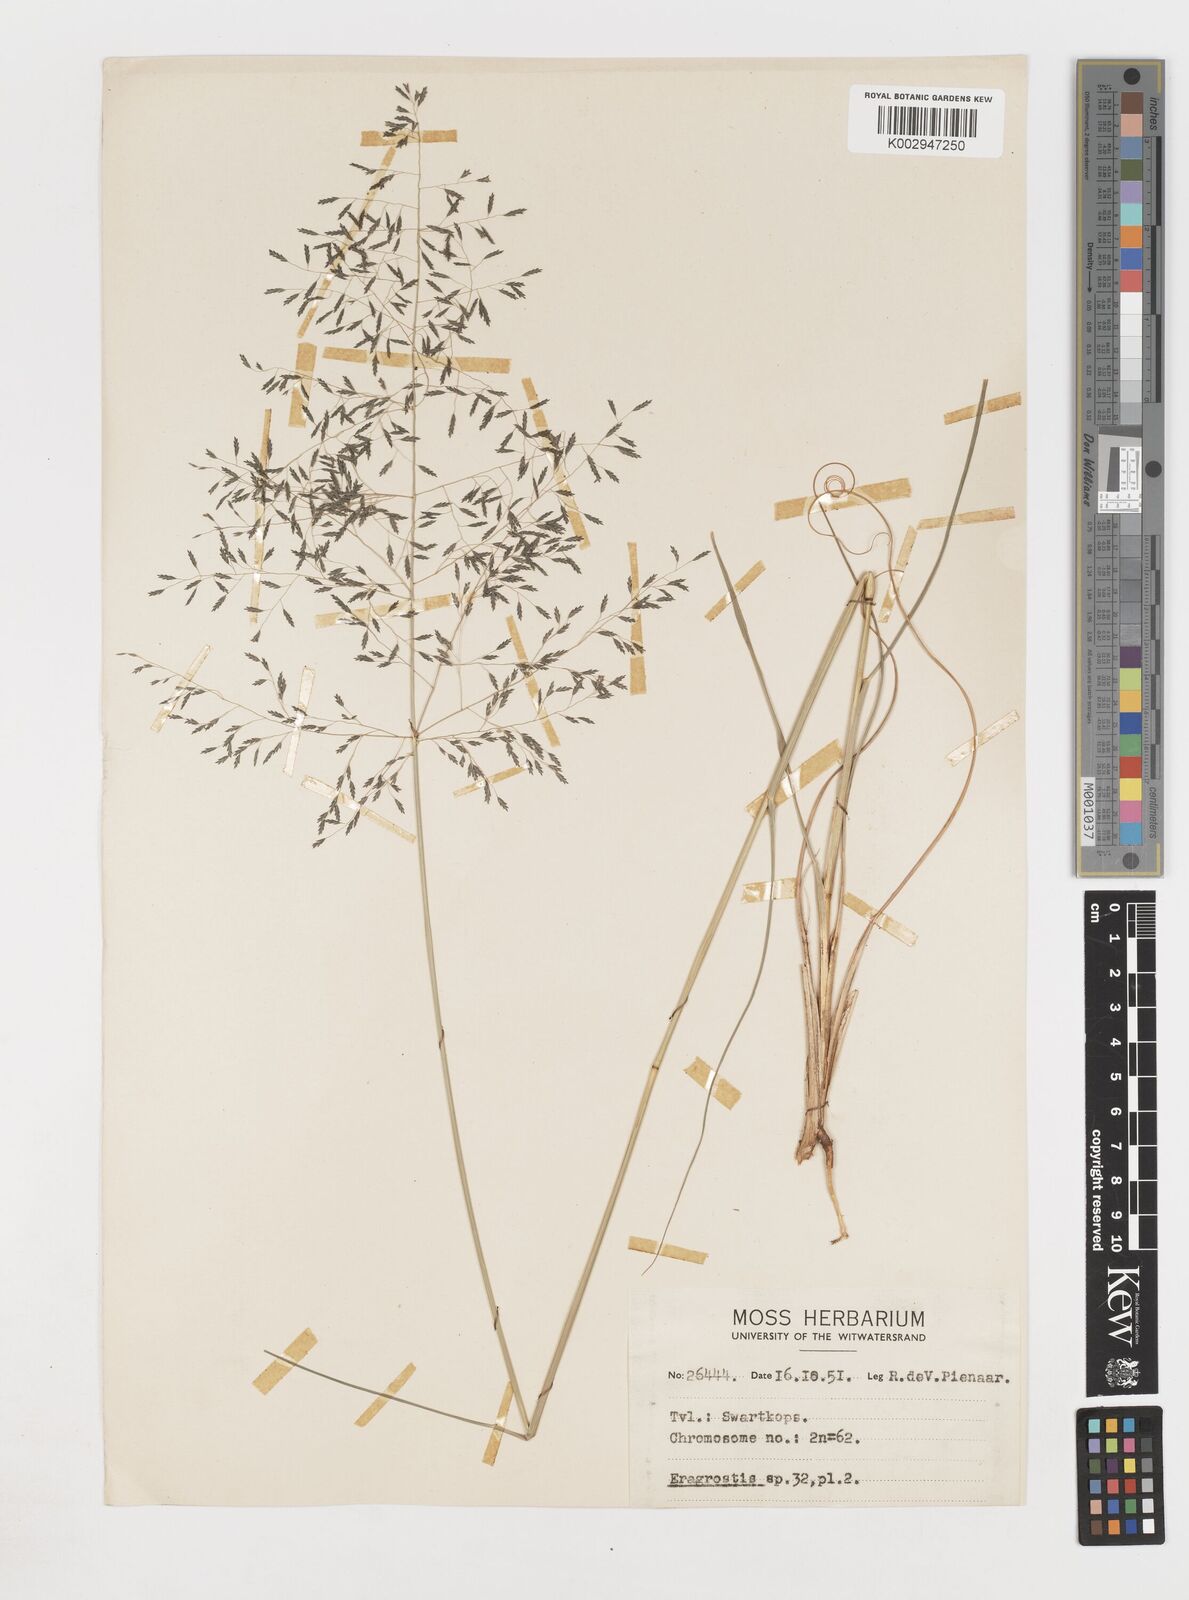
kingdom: Plantae
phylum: Tracheophyta
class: Liliopsida
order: Poales
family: Poaceae
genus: Eragrostis
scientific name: Eragrostis
